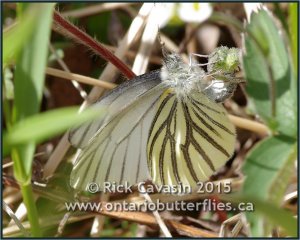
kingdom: Animalia
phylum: Arthropoda
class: Insecta
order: Lepidoptera
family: Pieridae
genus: Pieris
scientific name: Pieris oleracea
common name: Mustard White
